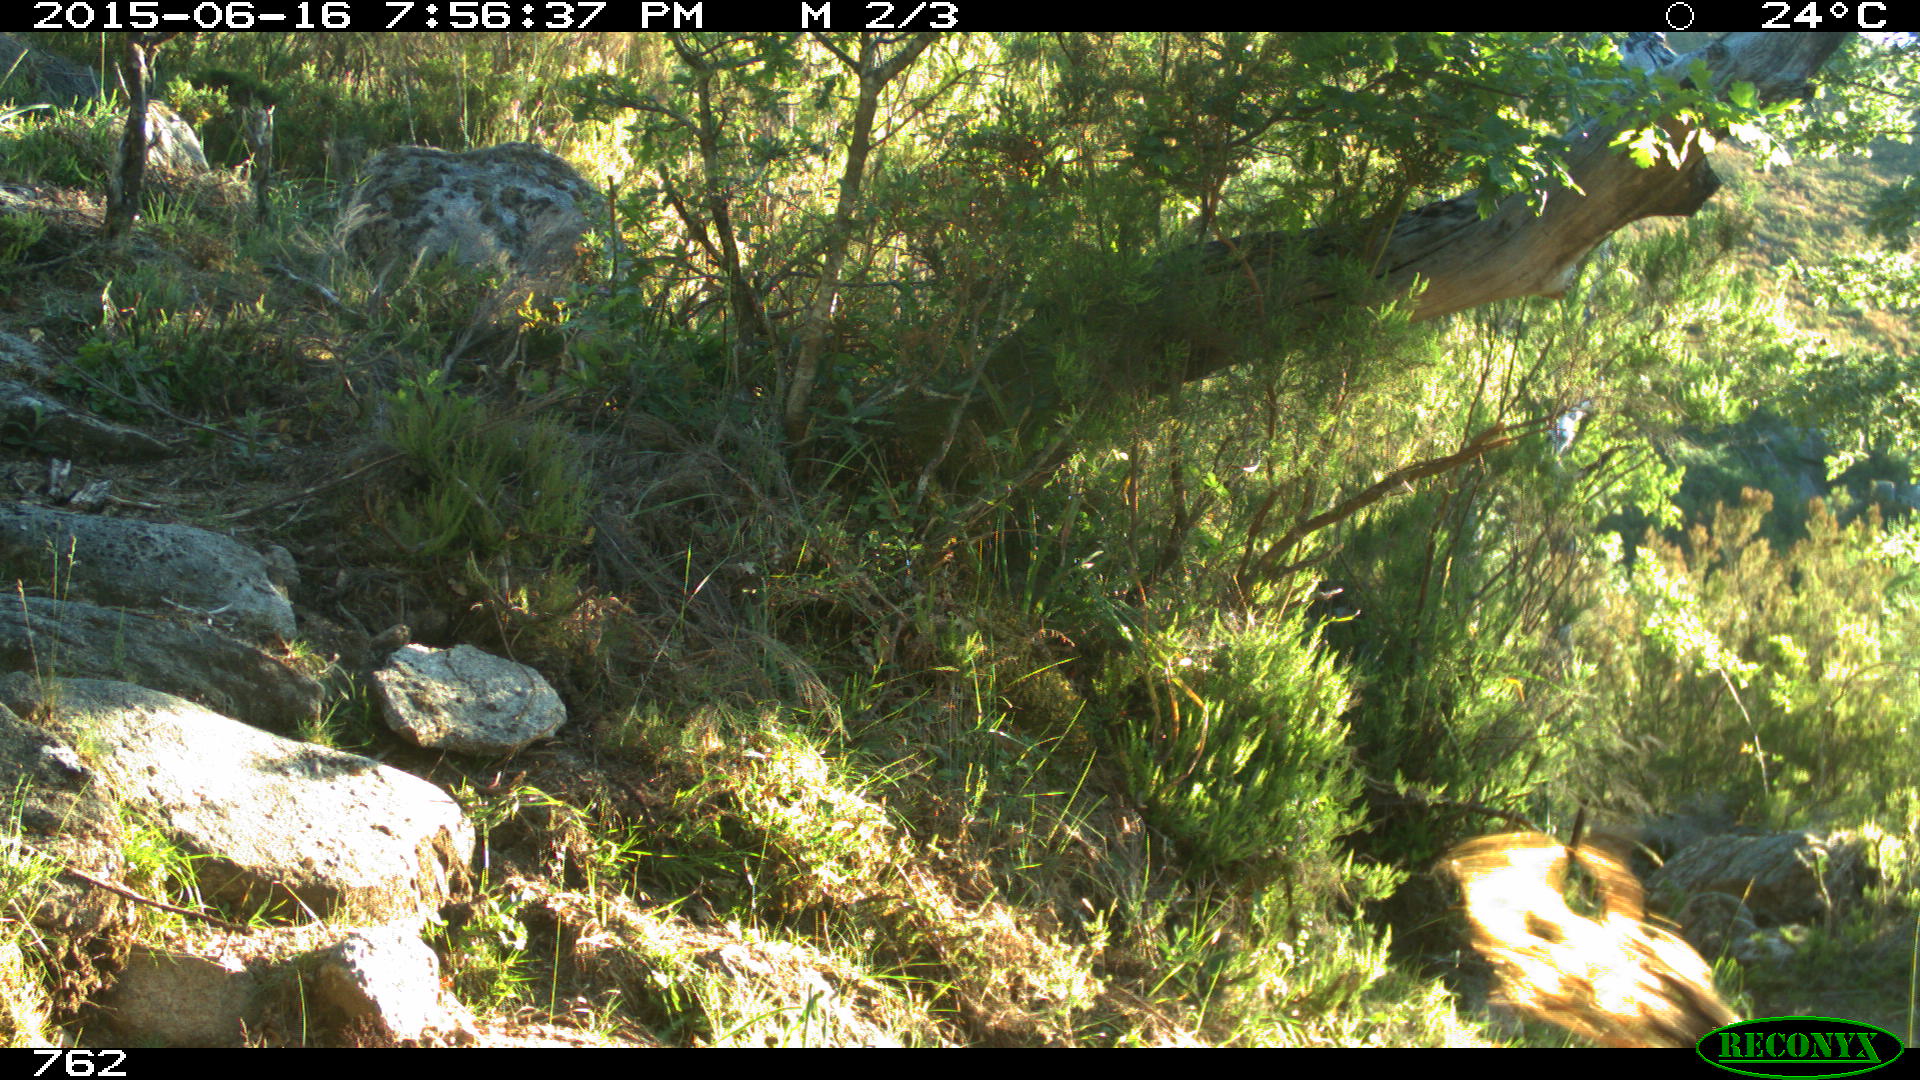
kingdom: Animalia
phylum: Chordata
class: Mammalia
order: Artiodactyla
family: Bovidae
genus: Bos
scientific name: Bos taurus
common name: Domesticated cattle
